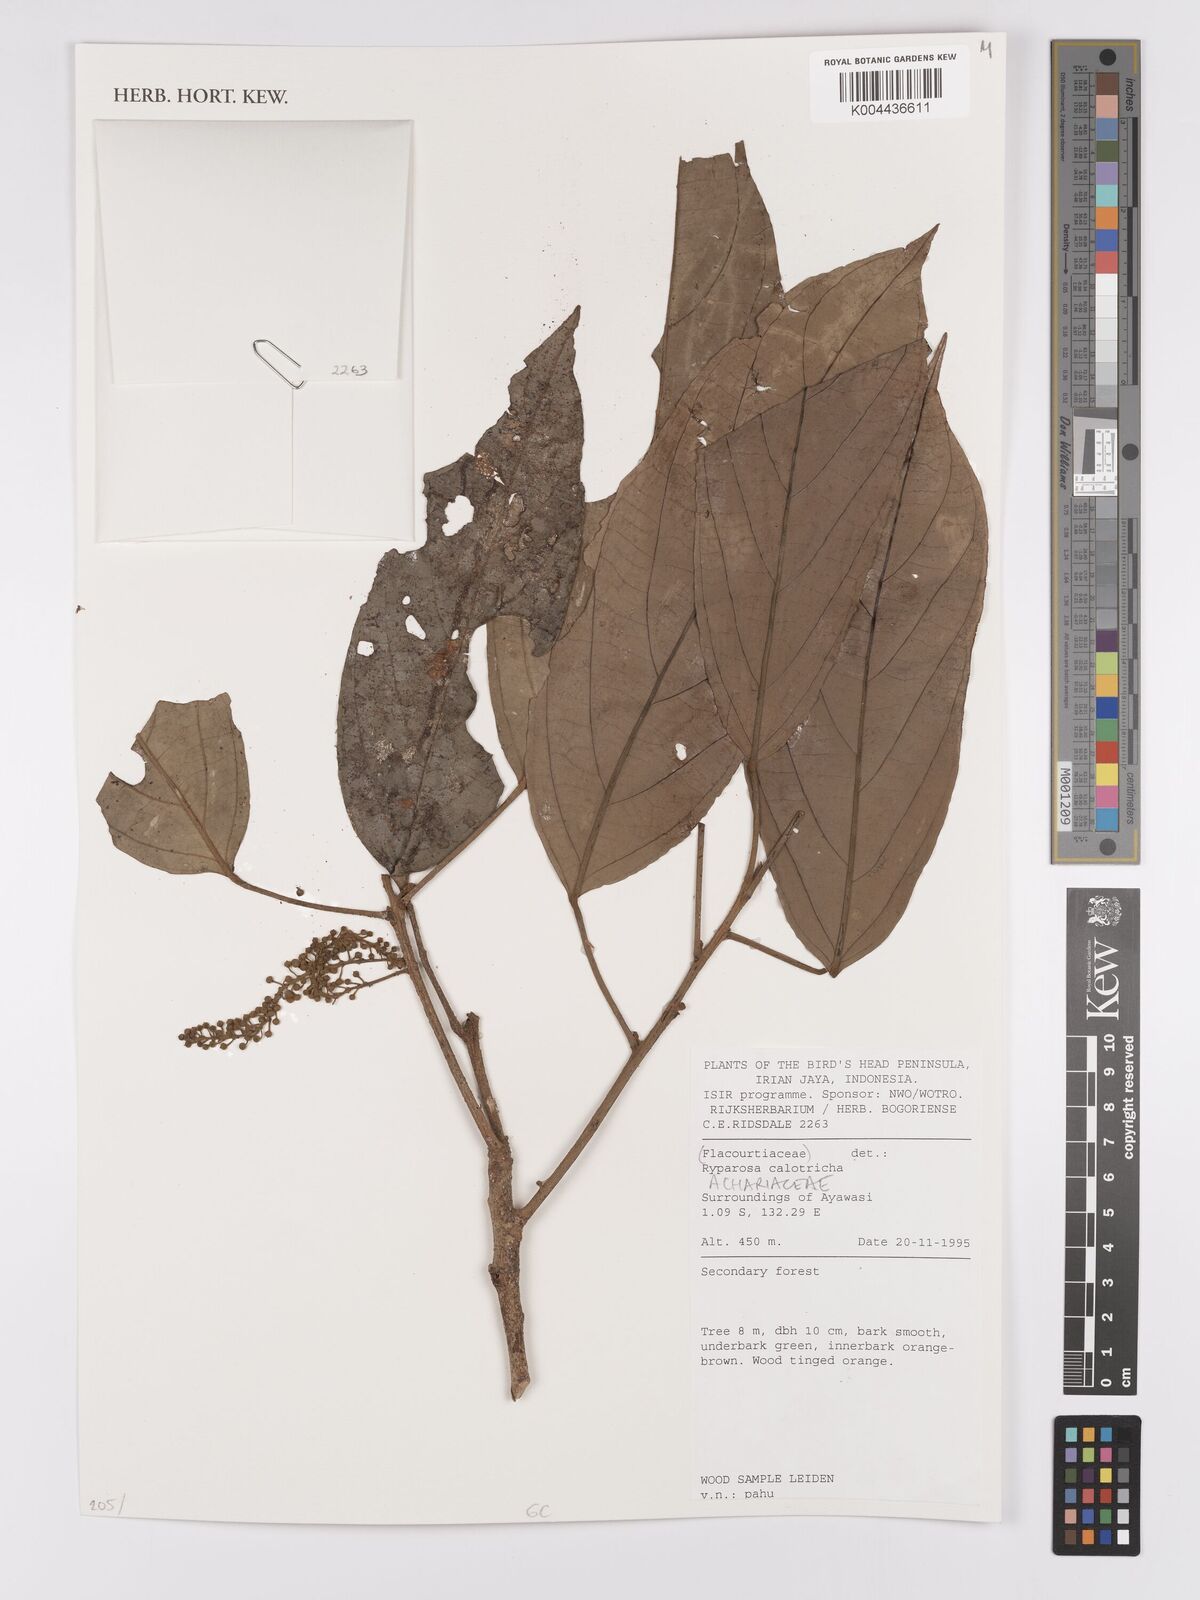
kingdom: Plantae
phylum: Tracheophyta
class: Magnoliopsida
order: Malpighiales
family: Achariaceae
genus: Ryparosa
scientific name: Ryparosa calotricha
